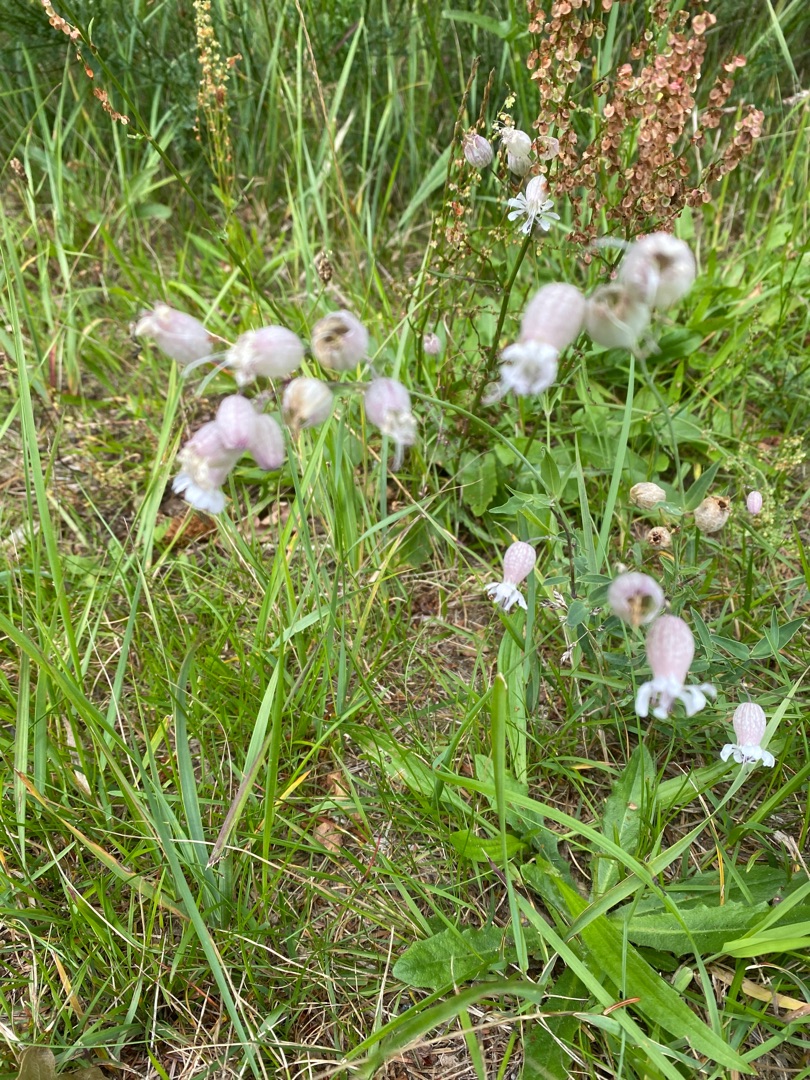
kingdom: Plantae
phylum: Tracheophyta
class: Magnoliopsida
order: Caryophyllales
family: Caryophyllaceae
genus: Silene
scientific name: Silene vulgaris
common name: Blæresmælde
